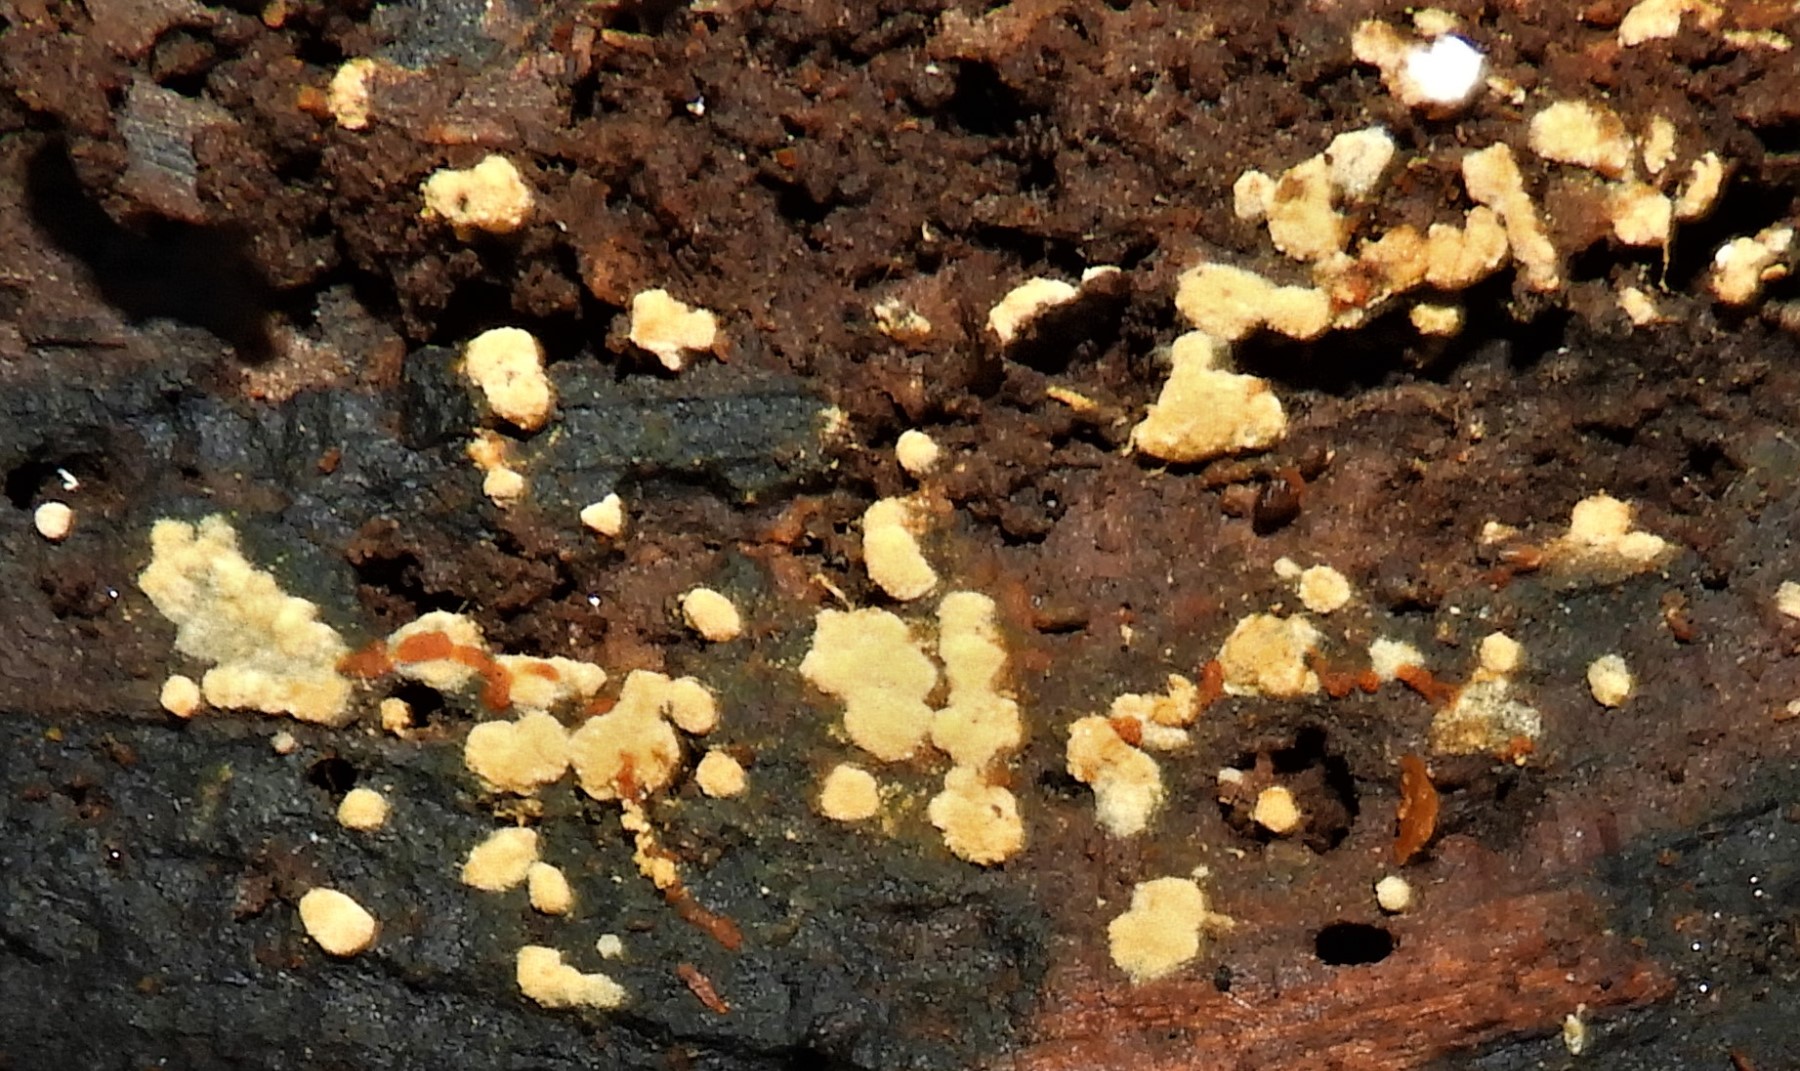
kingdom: Fungi
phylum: Basidiomycota
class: Agaricomycetes
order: Cantharellales
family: Botryobasidiaceae
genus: Botryobasidium
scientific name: Botryobasidium aureum
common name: gylden spindhinde
